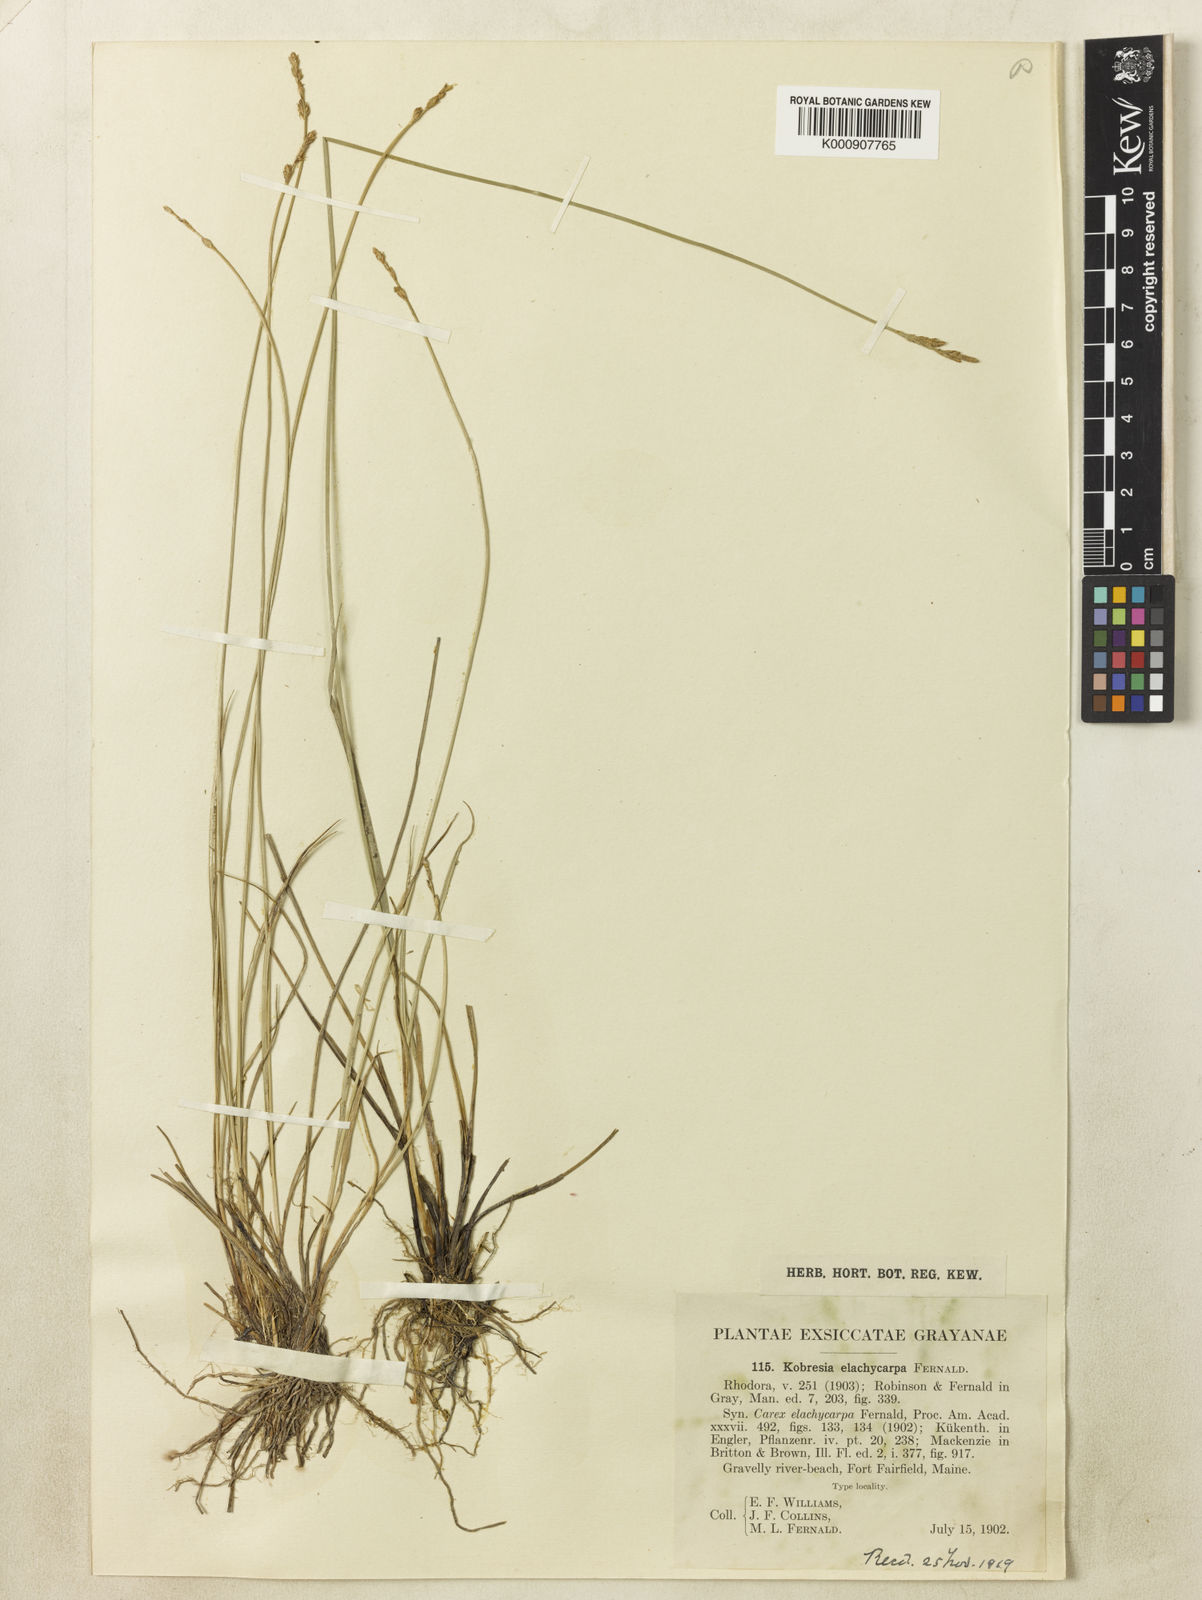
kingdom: Plantae
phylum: Tracheophyta
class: Liliopsida
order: Poales
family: Cyperaceae
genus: Carex
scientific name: Carex sterilis
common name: Dioecious sedge
